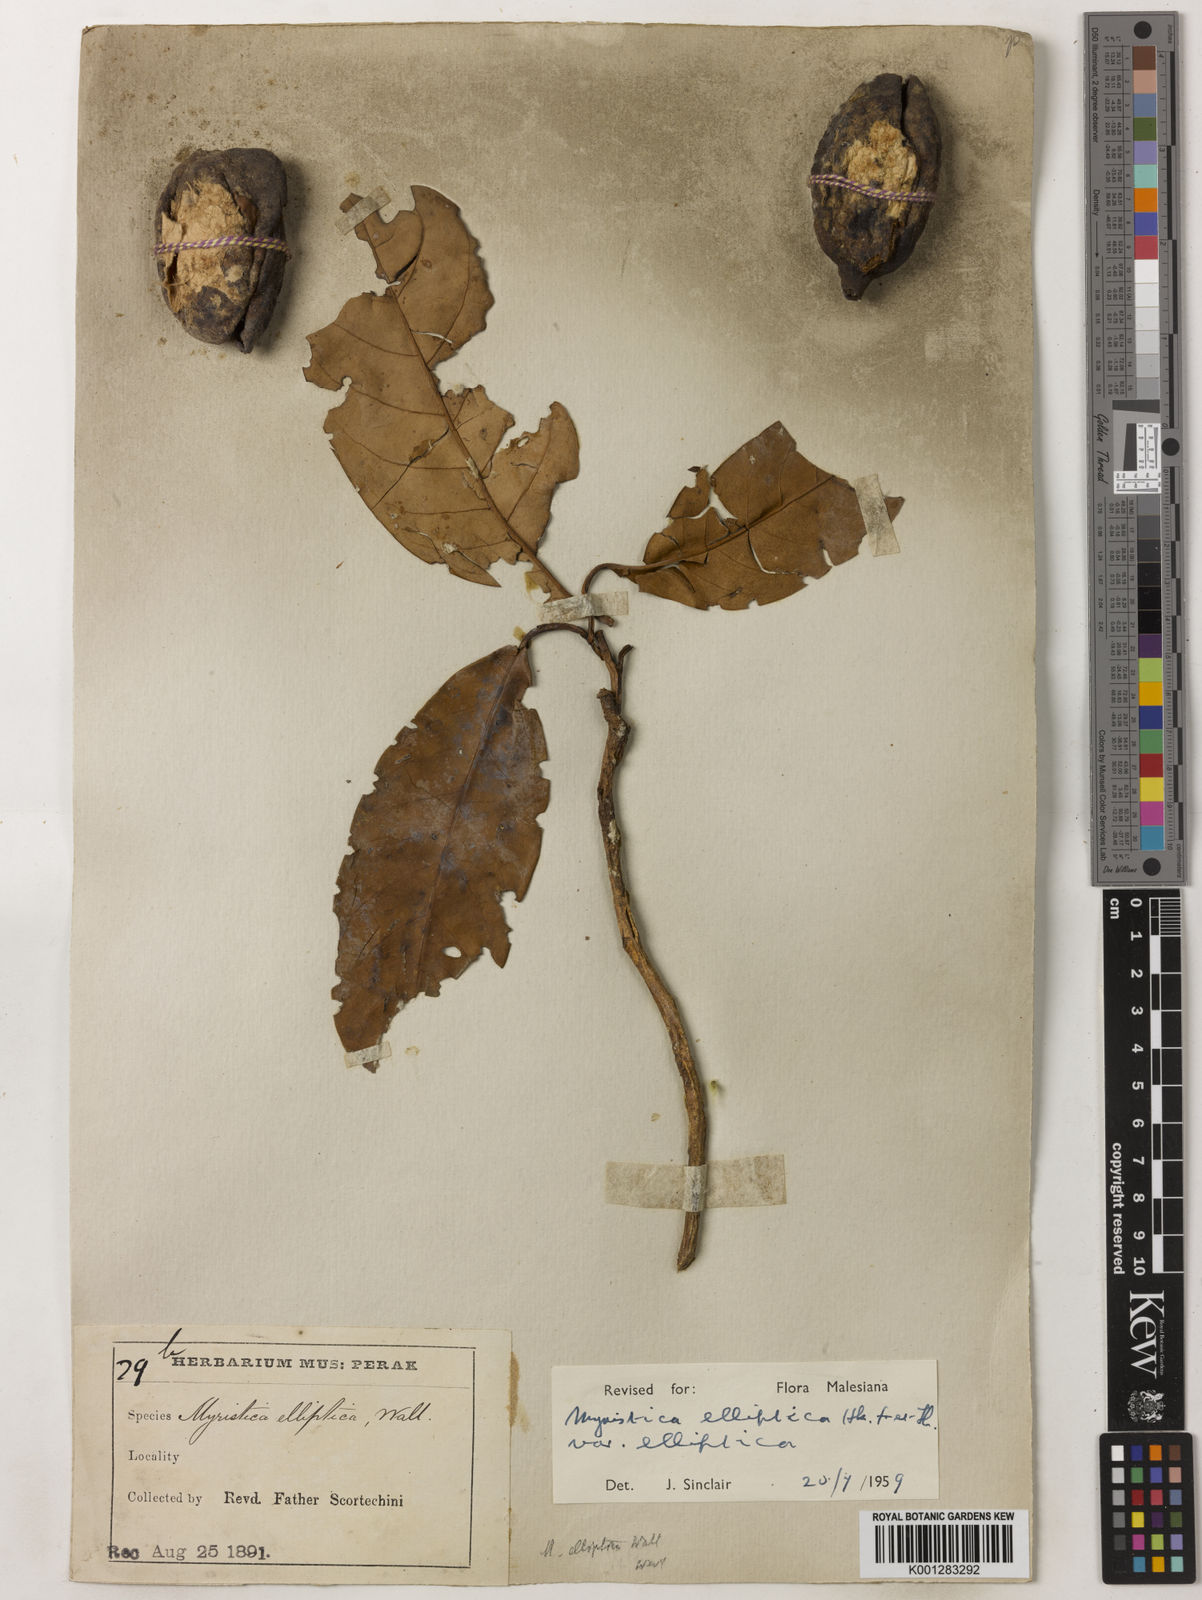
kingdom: Plantae
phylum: Tracheophyta
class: Magnoliopsida
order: Magnoliales
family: Myristicaceae
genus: Myristica
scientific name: Myristica elliptica
